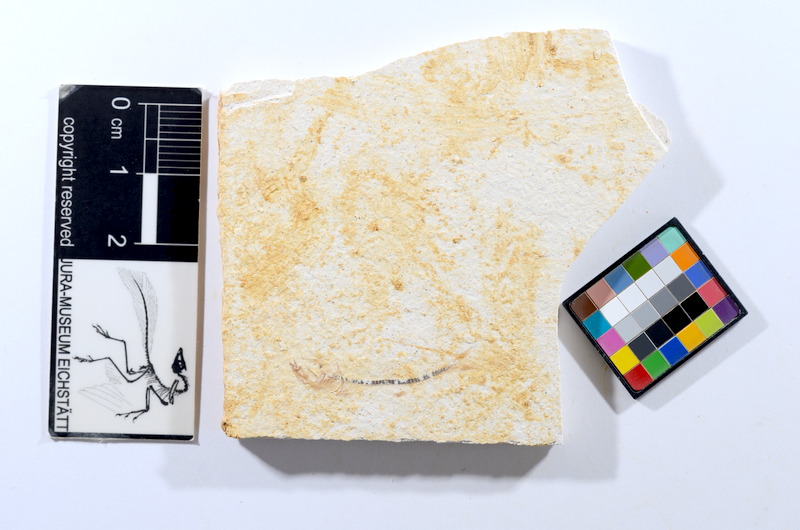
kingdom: Animalia
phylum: Chordata
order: Salmoniformes
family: Orthogonikleithridae
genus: Orthogonikleithrus
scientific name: Orthogonikleithrus hoelli
